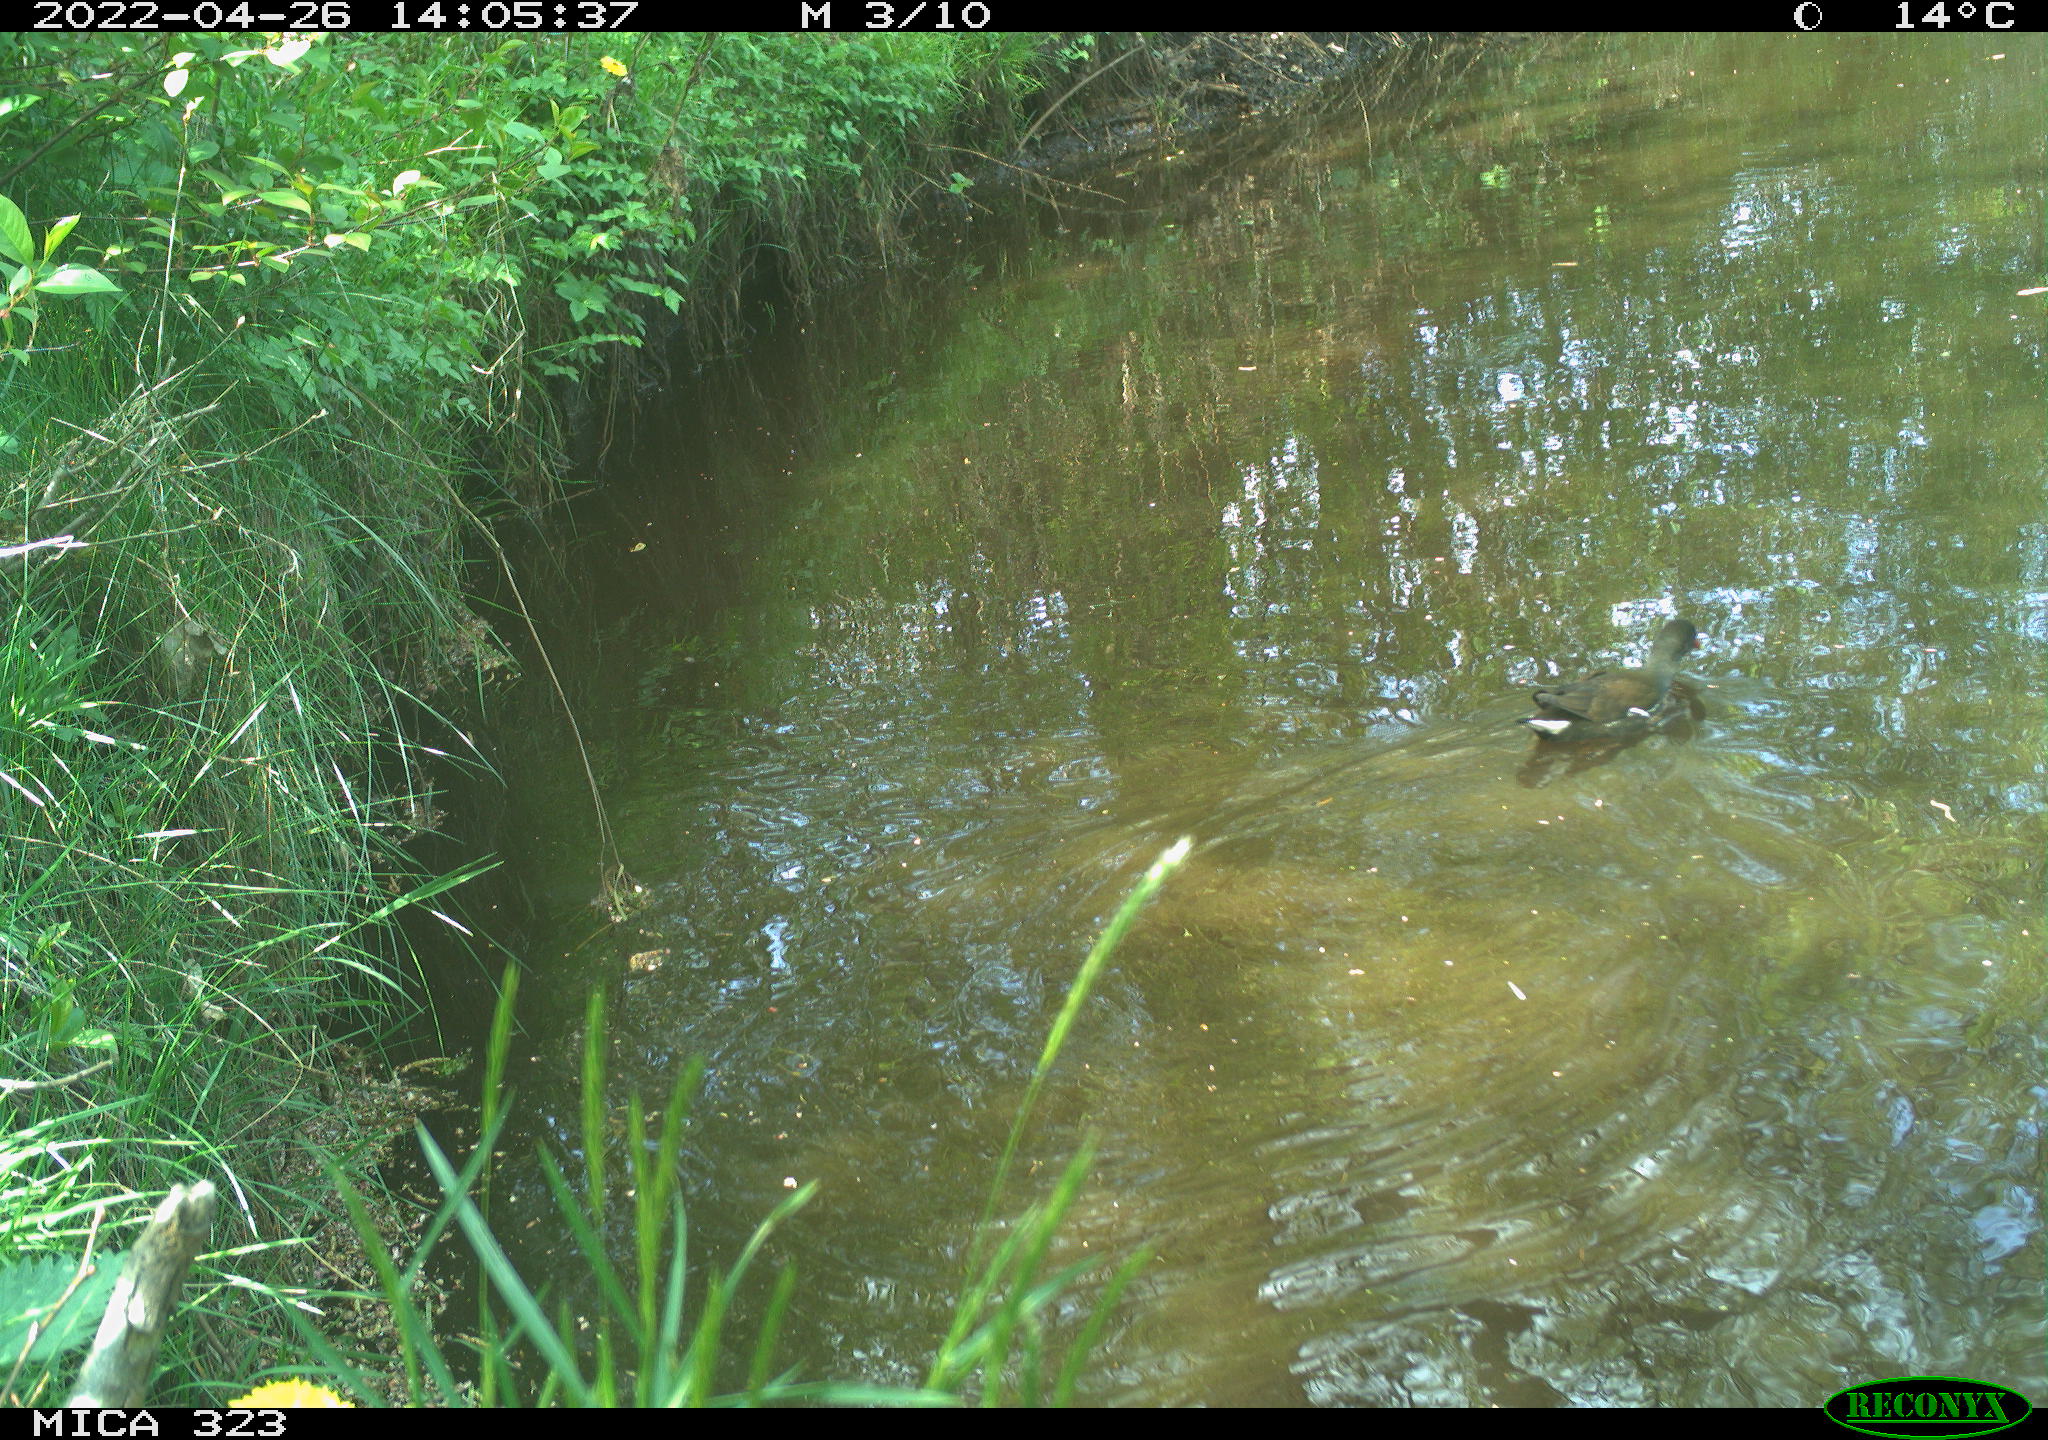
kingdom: Animalia
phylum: Chordata
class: Aves
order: Gruiformes
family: Rallidae
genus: Gallinula
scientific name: Gallinula chloropus
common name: Common moorhen
